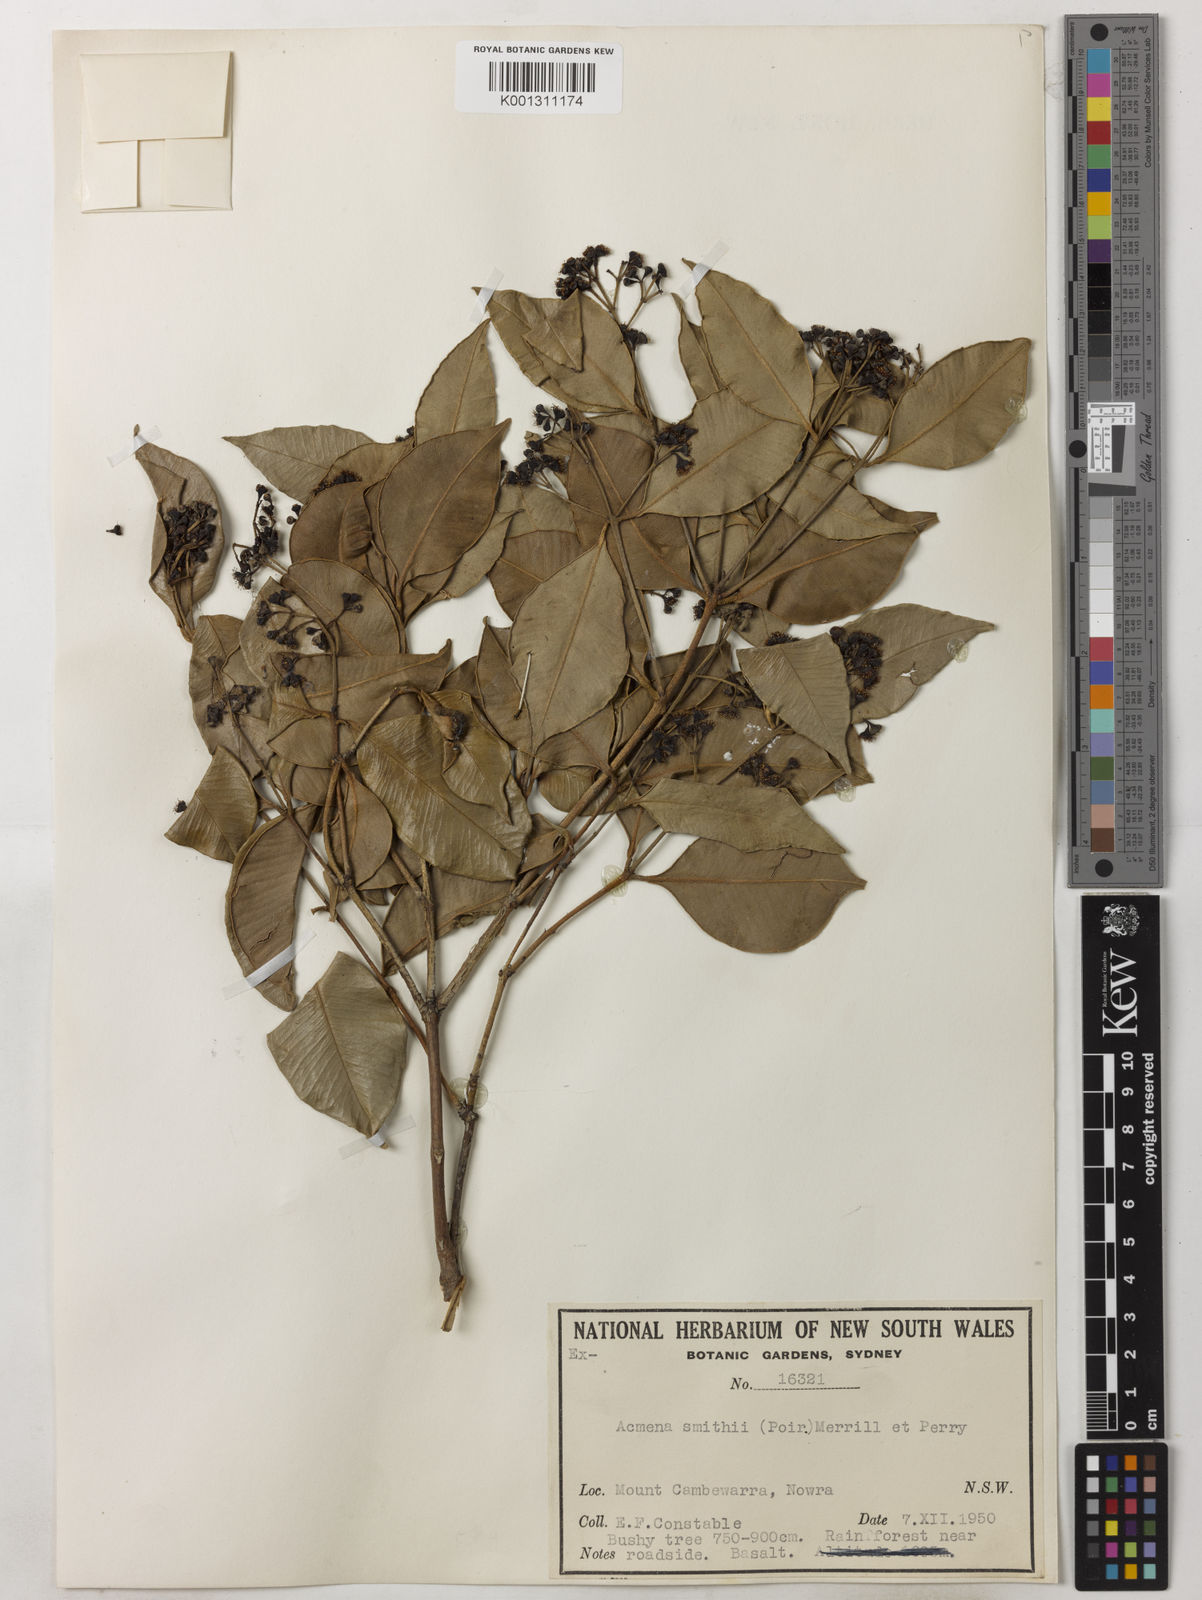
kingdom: Plantae
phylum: Tracheophyta
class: Magnoliopsida
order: Myrtales
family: Myrtaceae
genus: Syzygium
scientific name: Syzygium smithii
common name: Lilly-pilly
